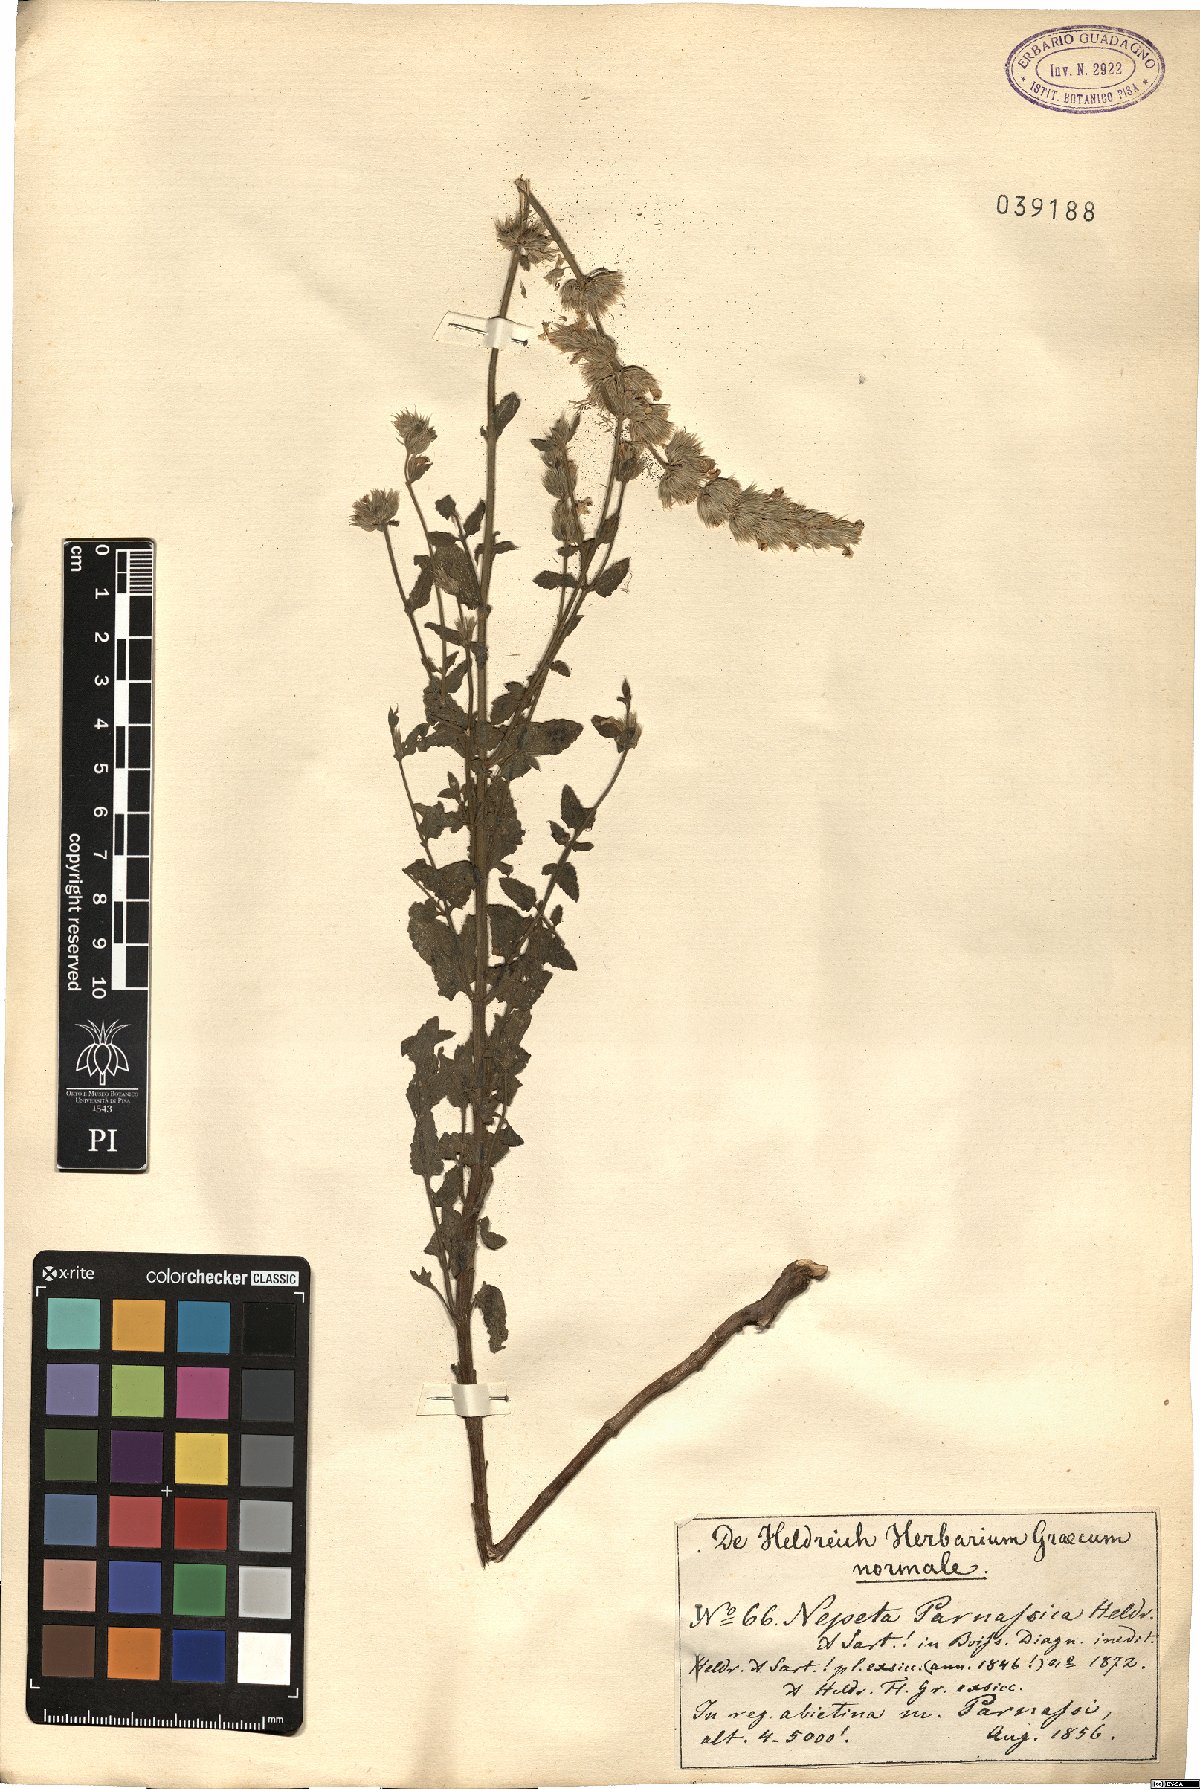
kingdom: Plantae
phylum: Tracheophyta
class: Magnoliopsida
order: Lamiales
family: Lamiaceae
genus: Nepeta
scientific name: Nepeta parnassica
